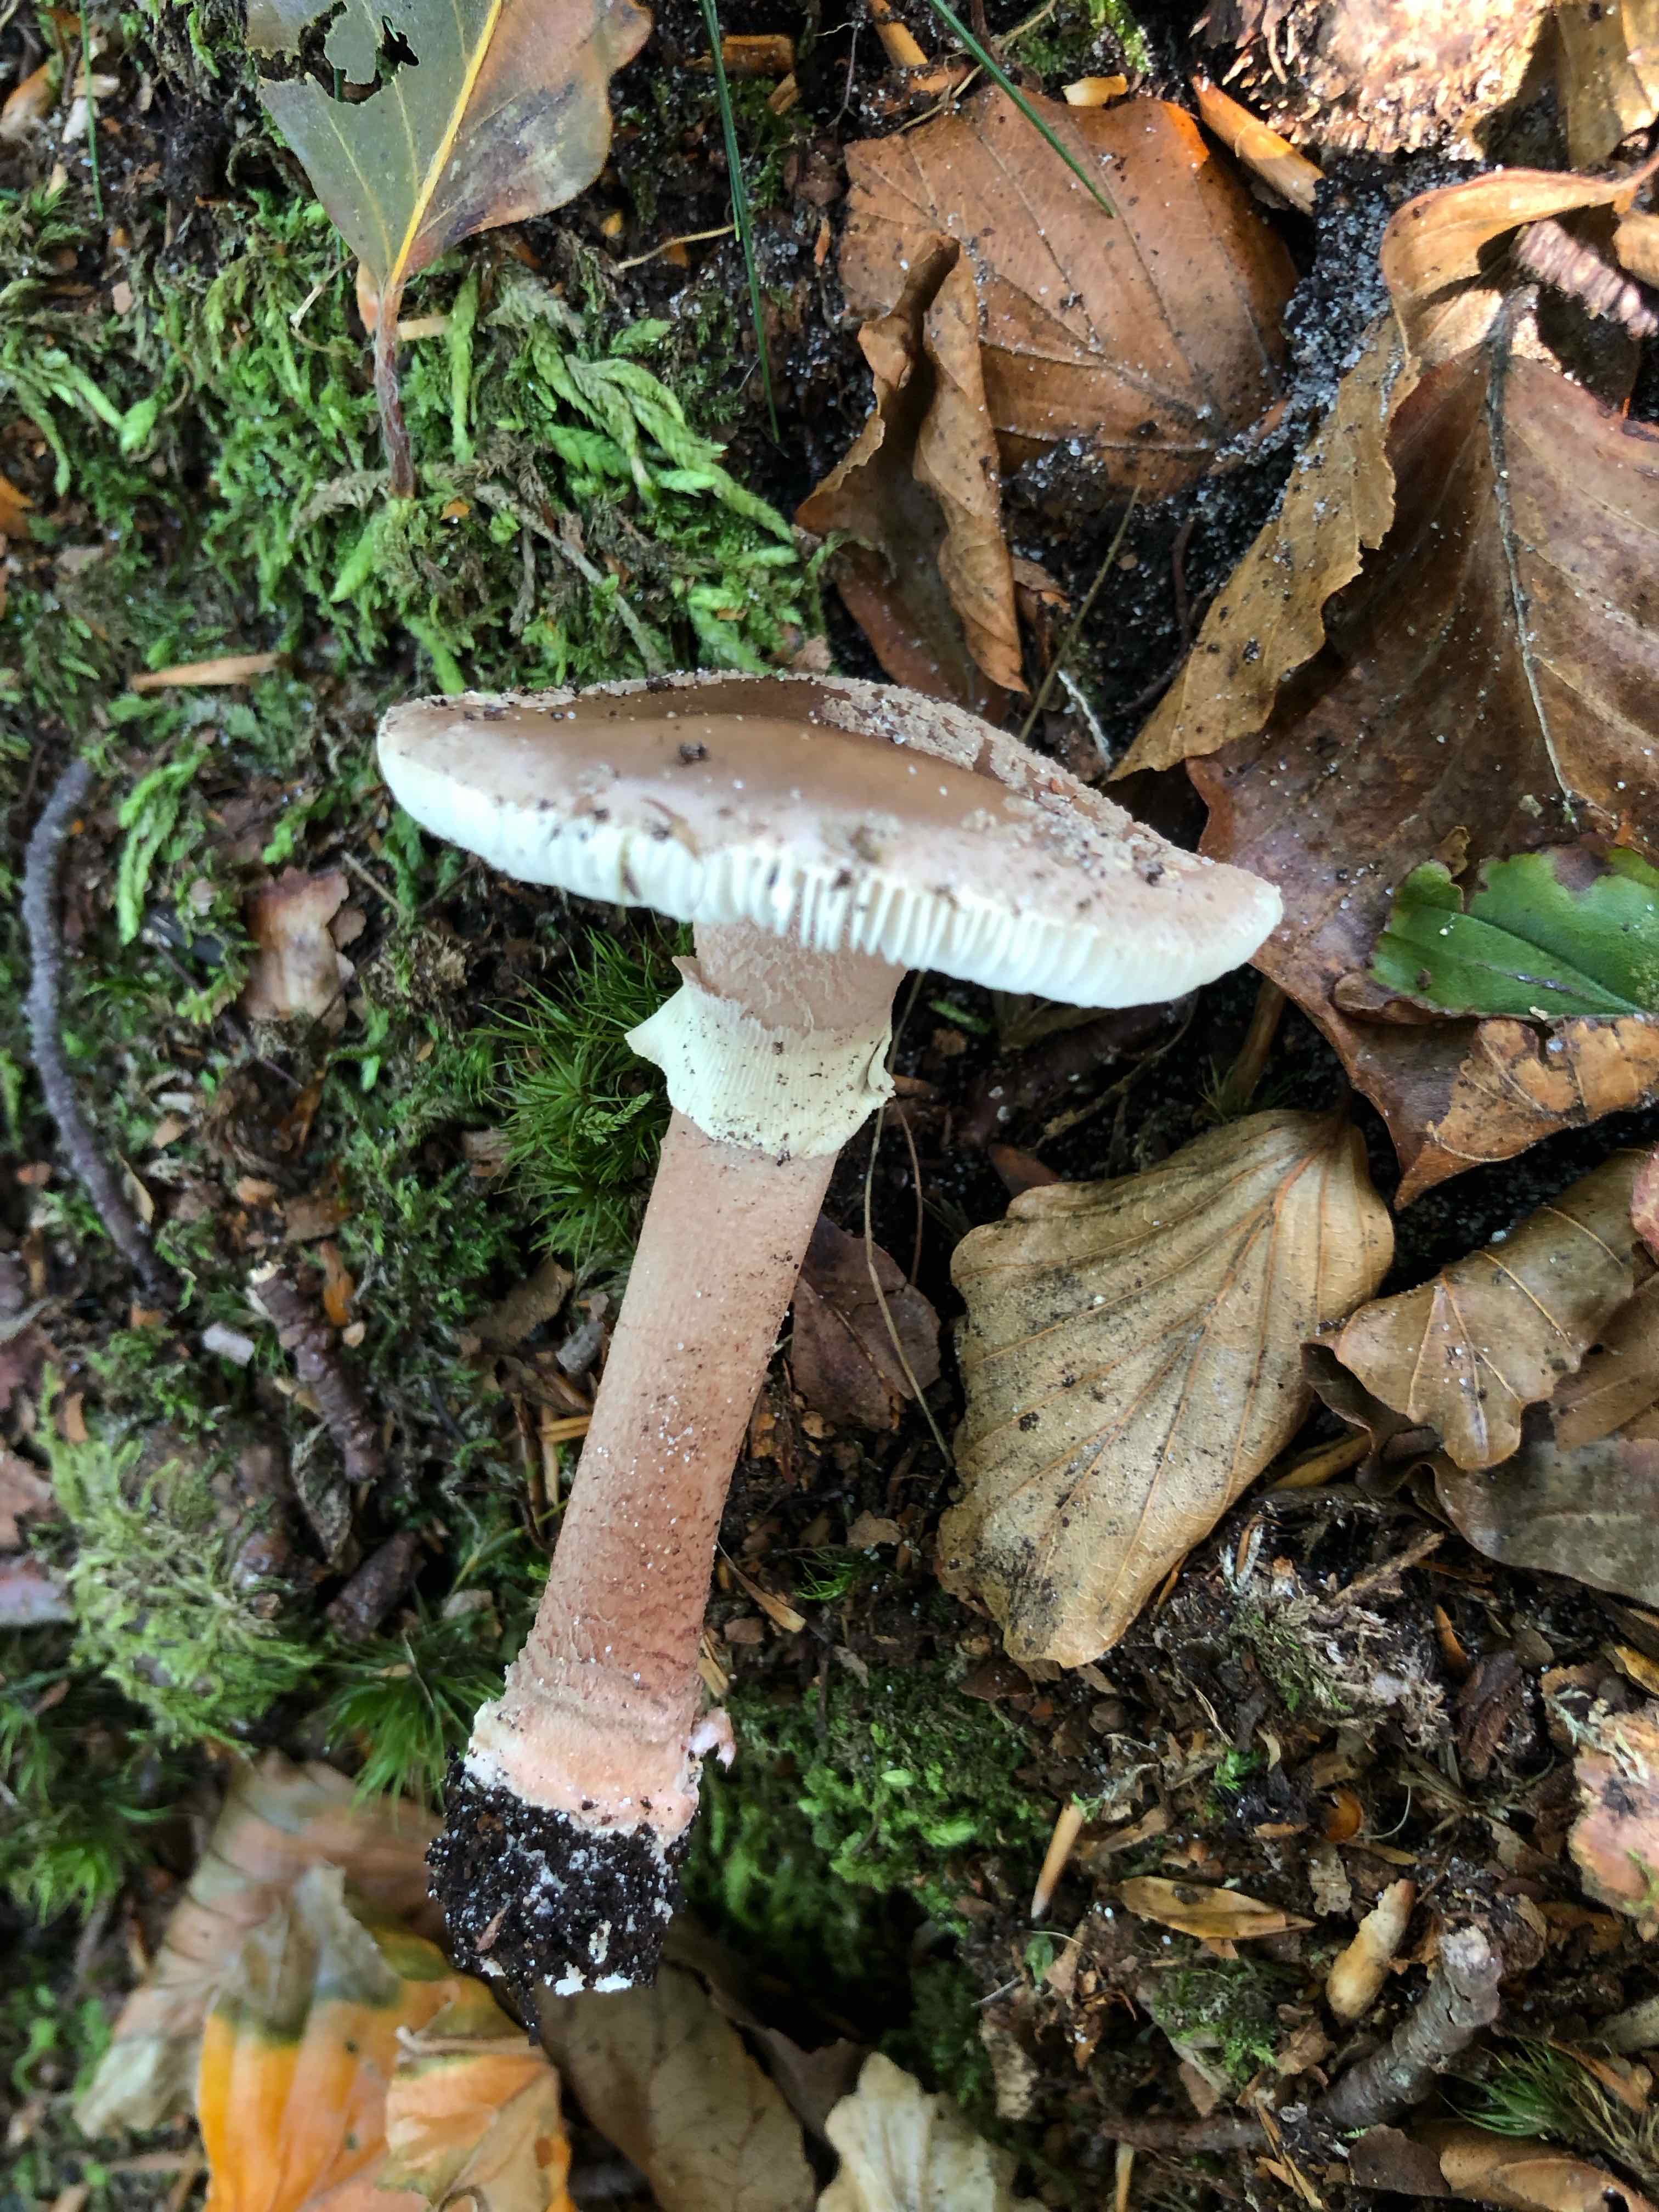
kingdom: Fungi
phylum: Basidiomycota
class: Agaricomycetes
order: Agaricales
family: Amanitaceae
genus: Amanita
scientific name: Amanita rubescens
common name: Blusher
